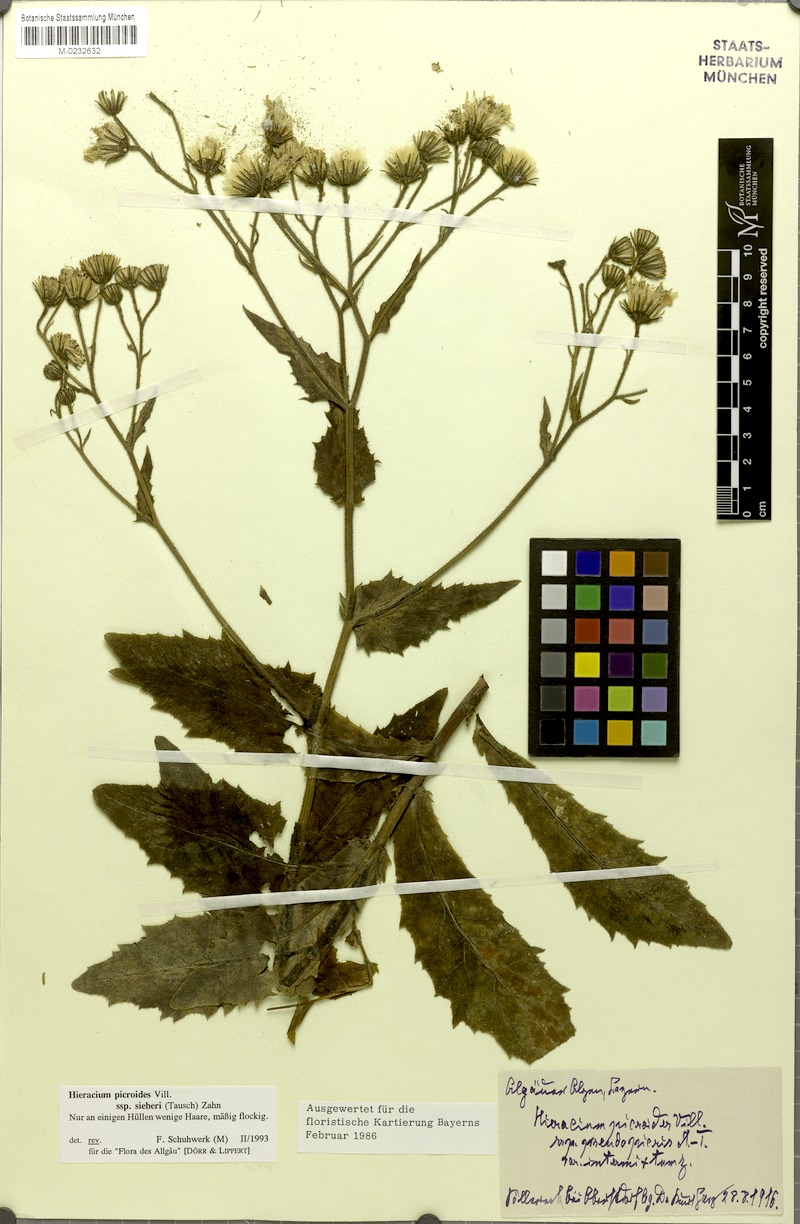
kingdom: Plantae
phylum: Tracheophyta
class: Magnoliopsida
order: Asterales
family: Asteraceae
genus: Hieracium
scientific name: Hieracium picroides
